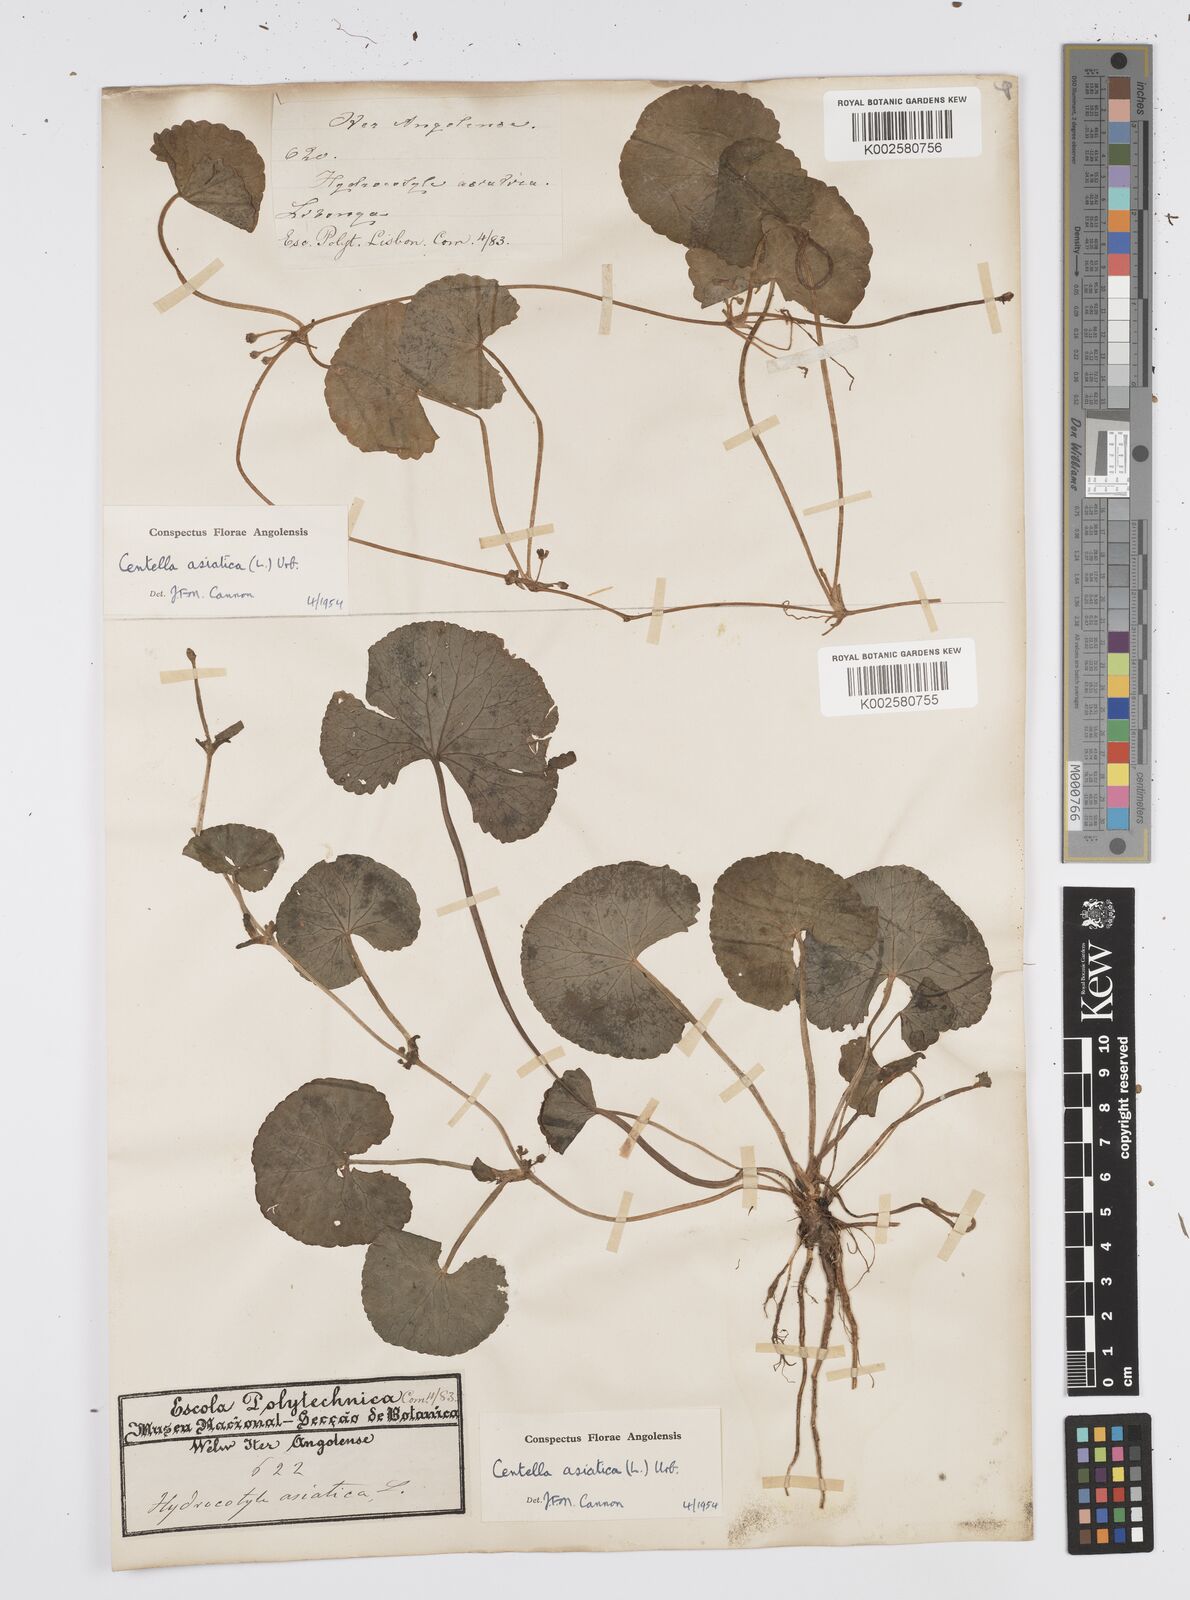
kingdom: Plantae
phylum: Tracheophyta
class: Magnoliopsida
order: Apiales
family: Apiaceae
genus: Centella
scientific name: Centella asiatica
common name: Spadeleaf
